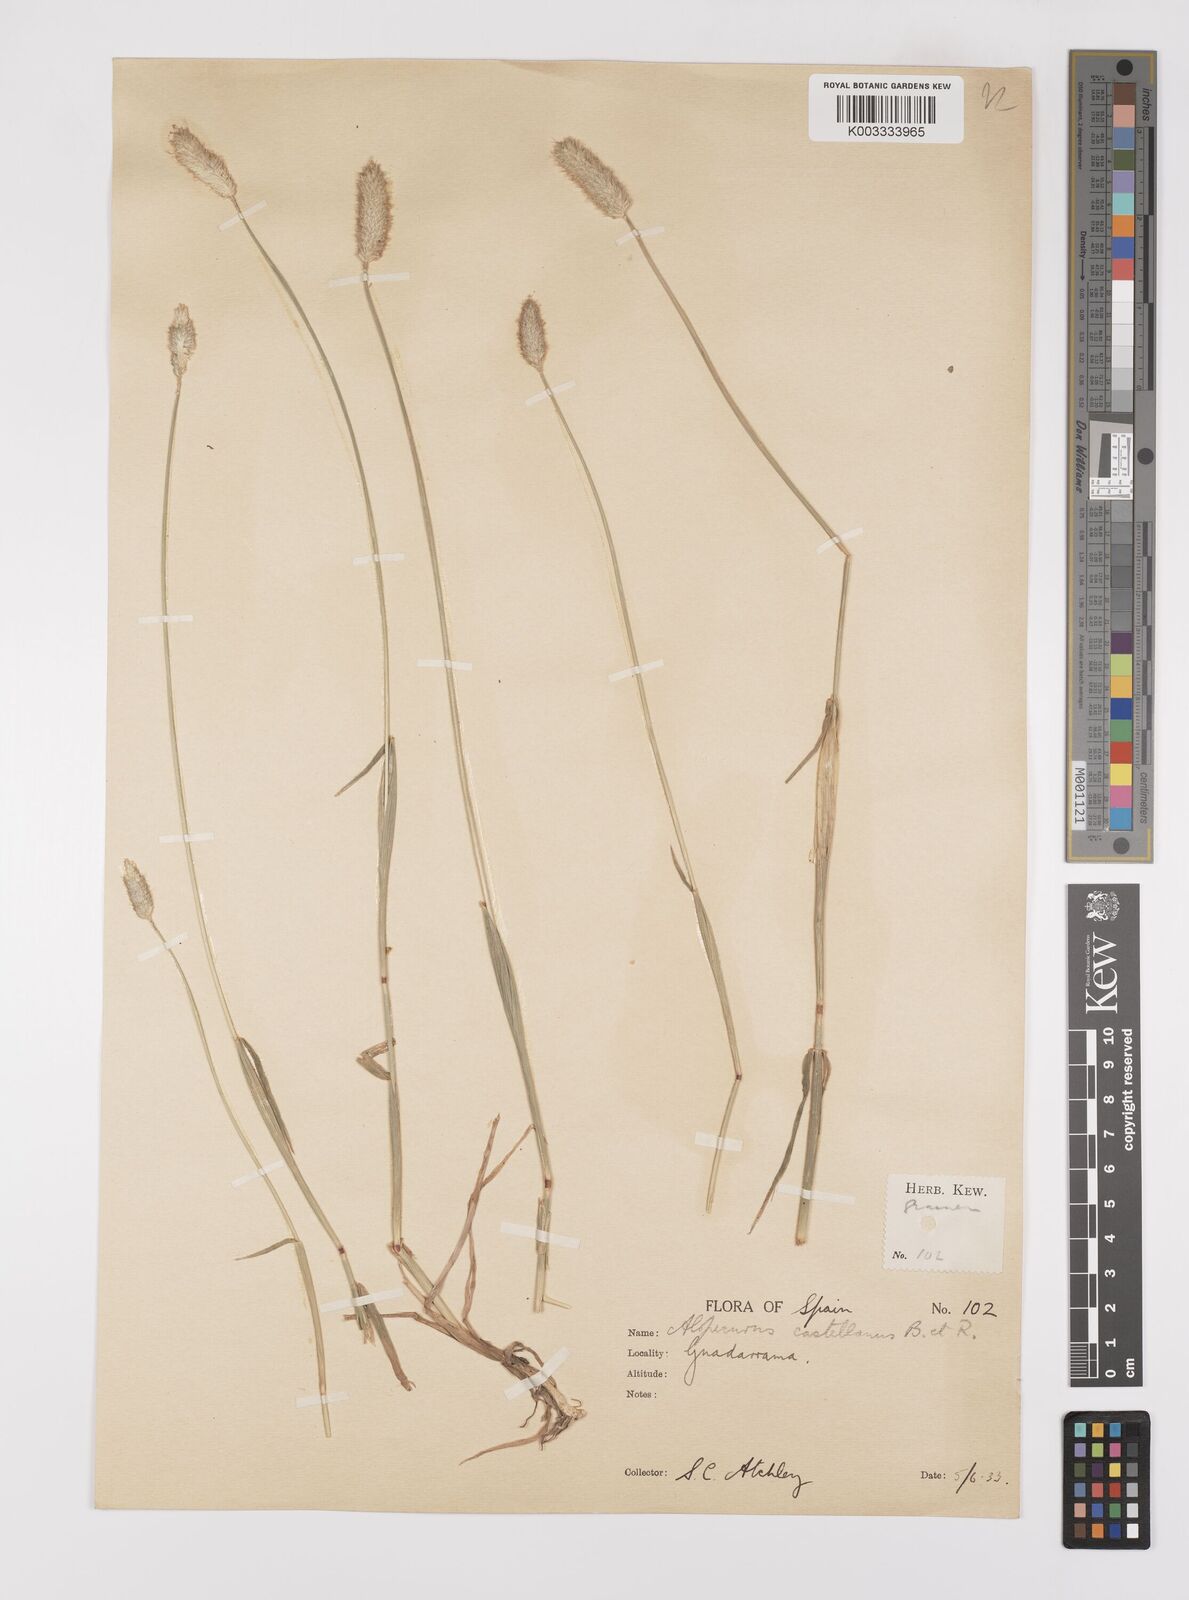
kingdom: Plantae
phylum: Tracheophyta
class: Liliopsida
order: Poales
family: Poaceae
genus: Alopecurus
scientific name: Alopecurus arundinaceus
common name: Creeping meadow foxtail
